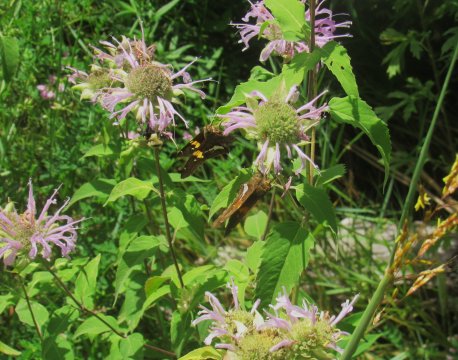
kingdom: Animalia
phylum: Arthropoda
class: Insecta
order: Lepidoptera
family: Hesperiidae
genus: Epargyreus
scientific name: Epargyreus clarus
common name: Silver-spotted Skipper
